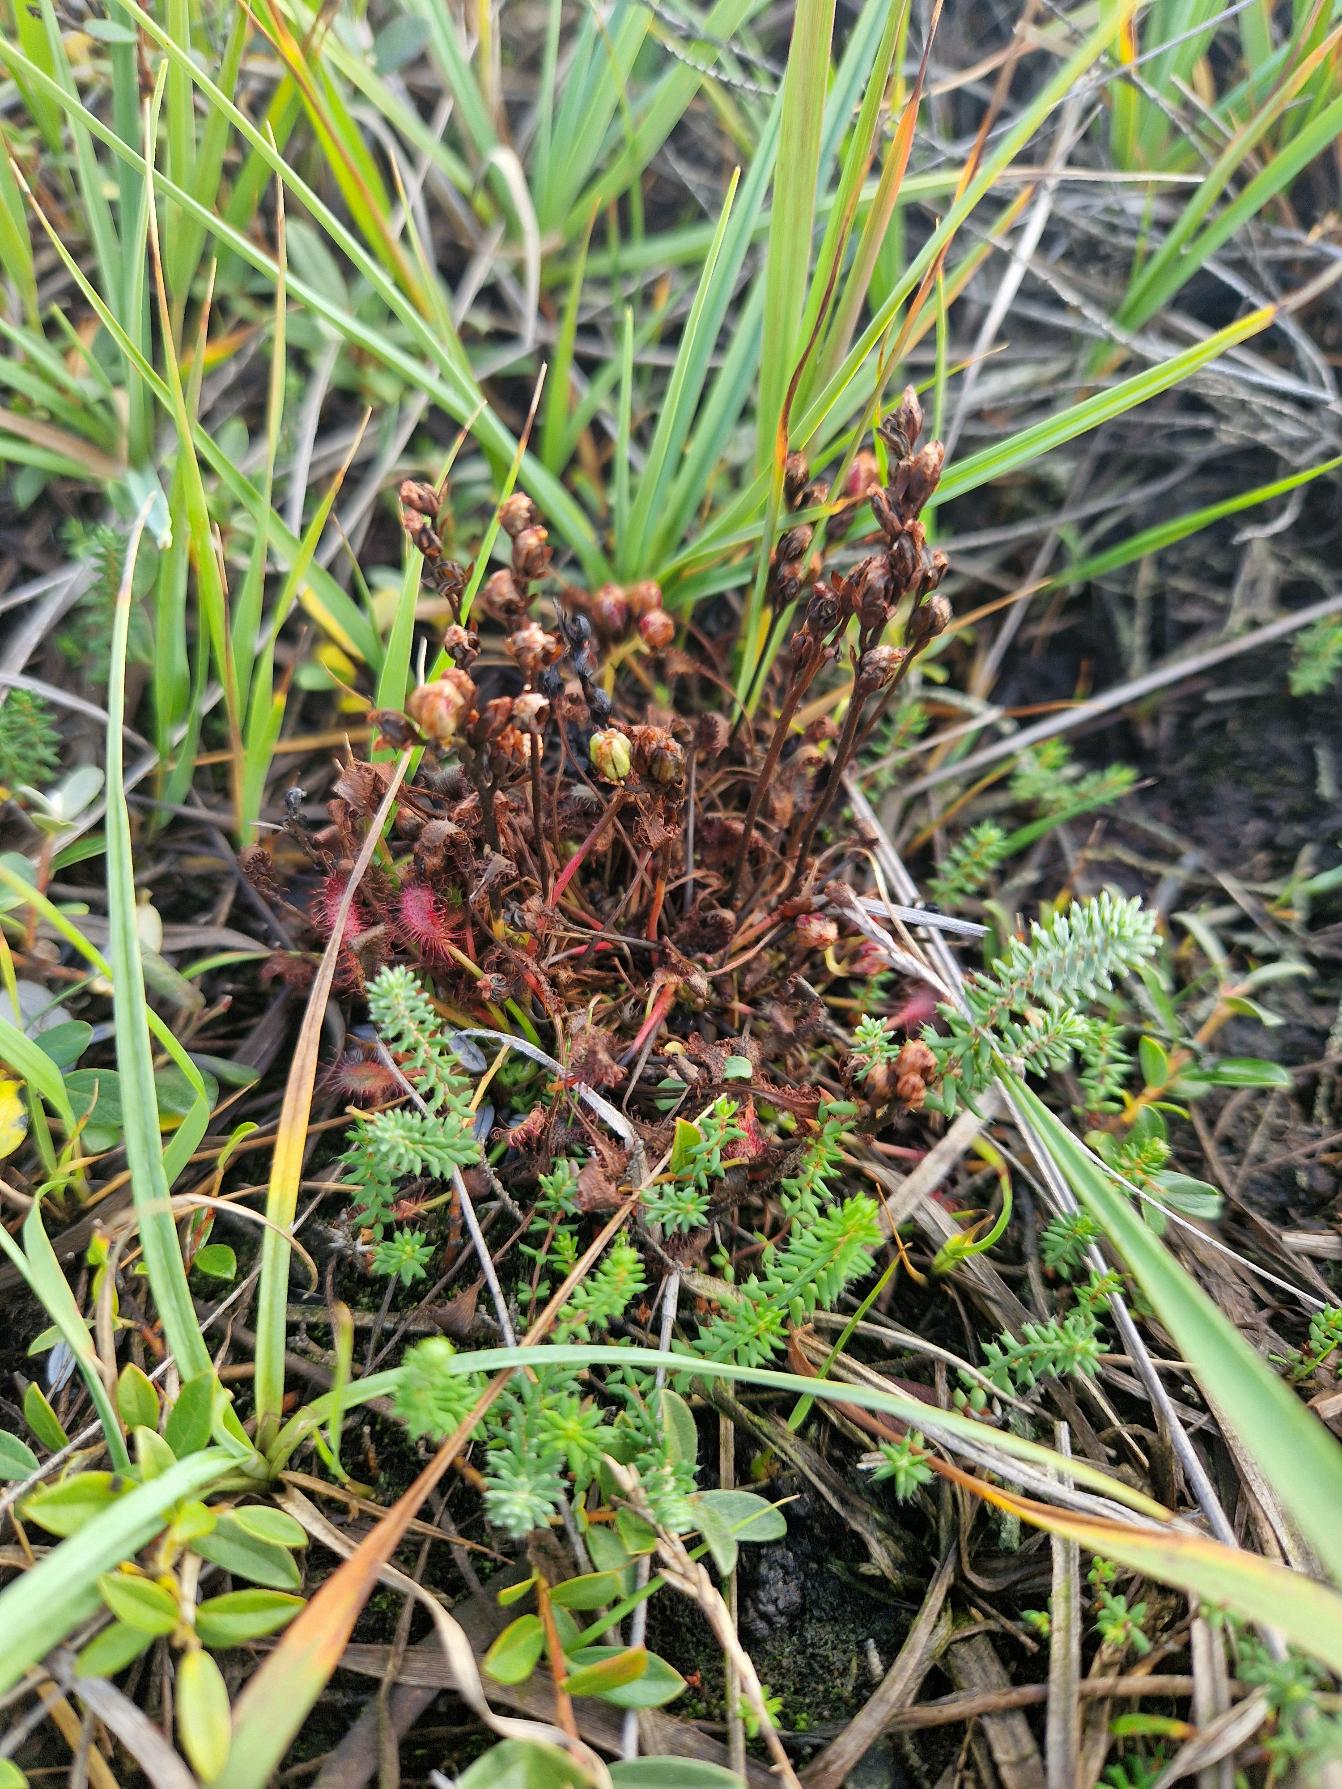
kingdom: Plantae
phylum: Tracheophyta
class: Magnoliopsida
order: Caryophyllales
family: Droseraceae
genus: Drosera
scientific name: Drosera intermedia
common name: Liden soldug
